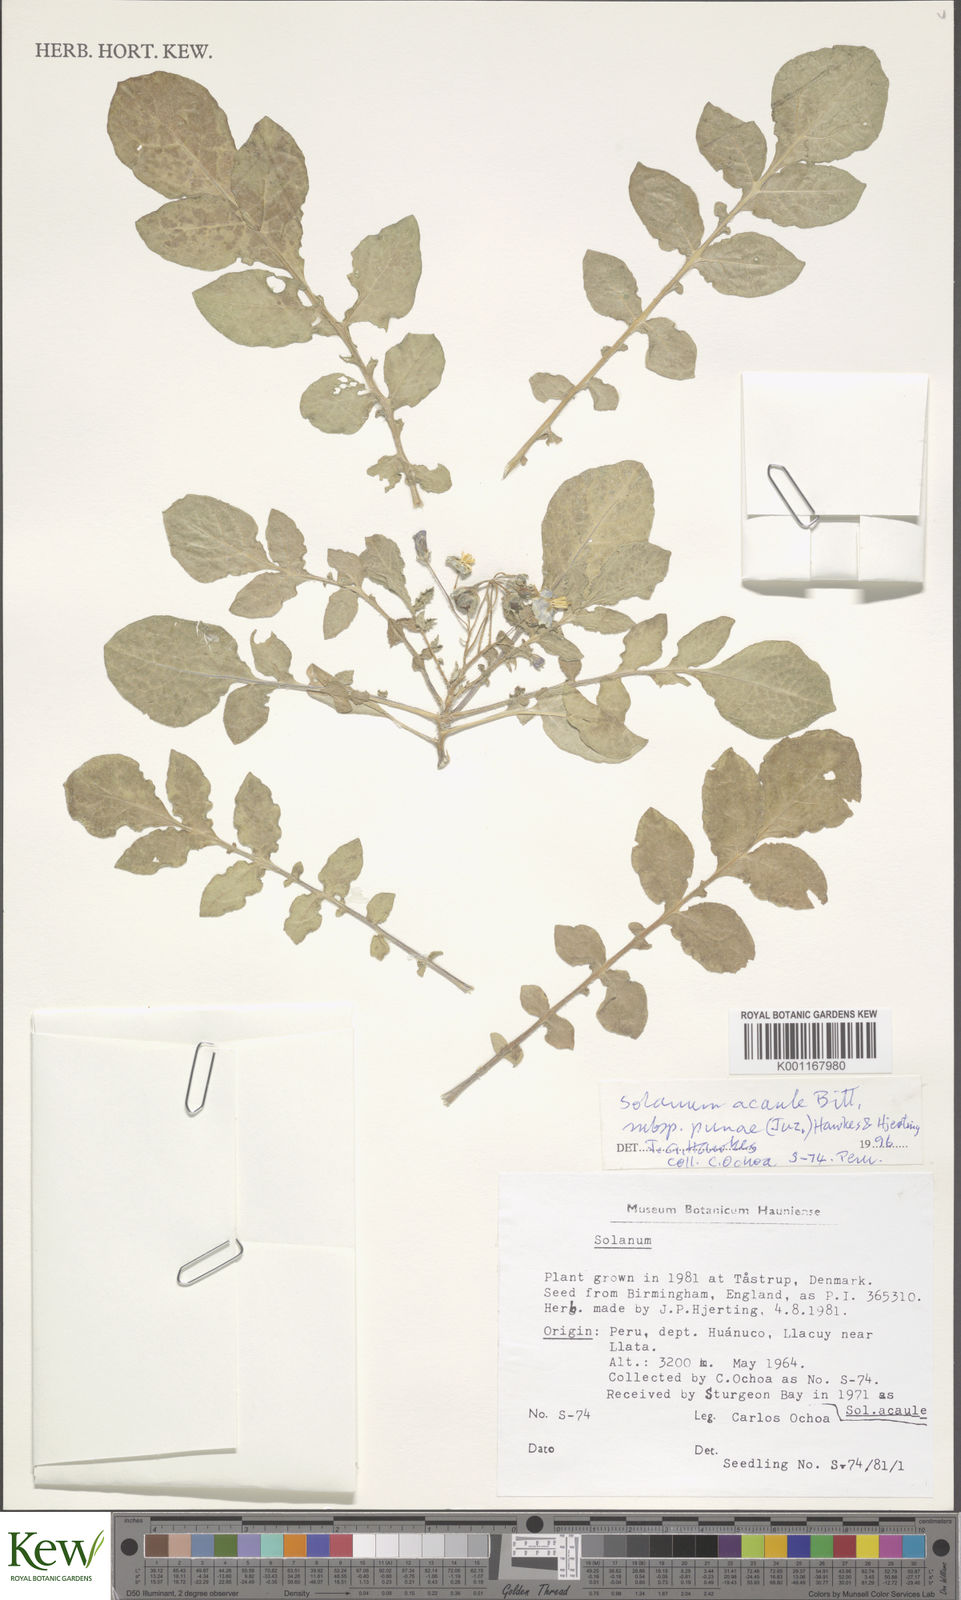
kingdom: Plantae
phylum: Tracheophyta
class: Magnoliopsida
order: Solanales
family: Solanaceae
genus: Solanum
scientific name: Solanum acaule
